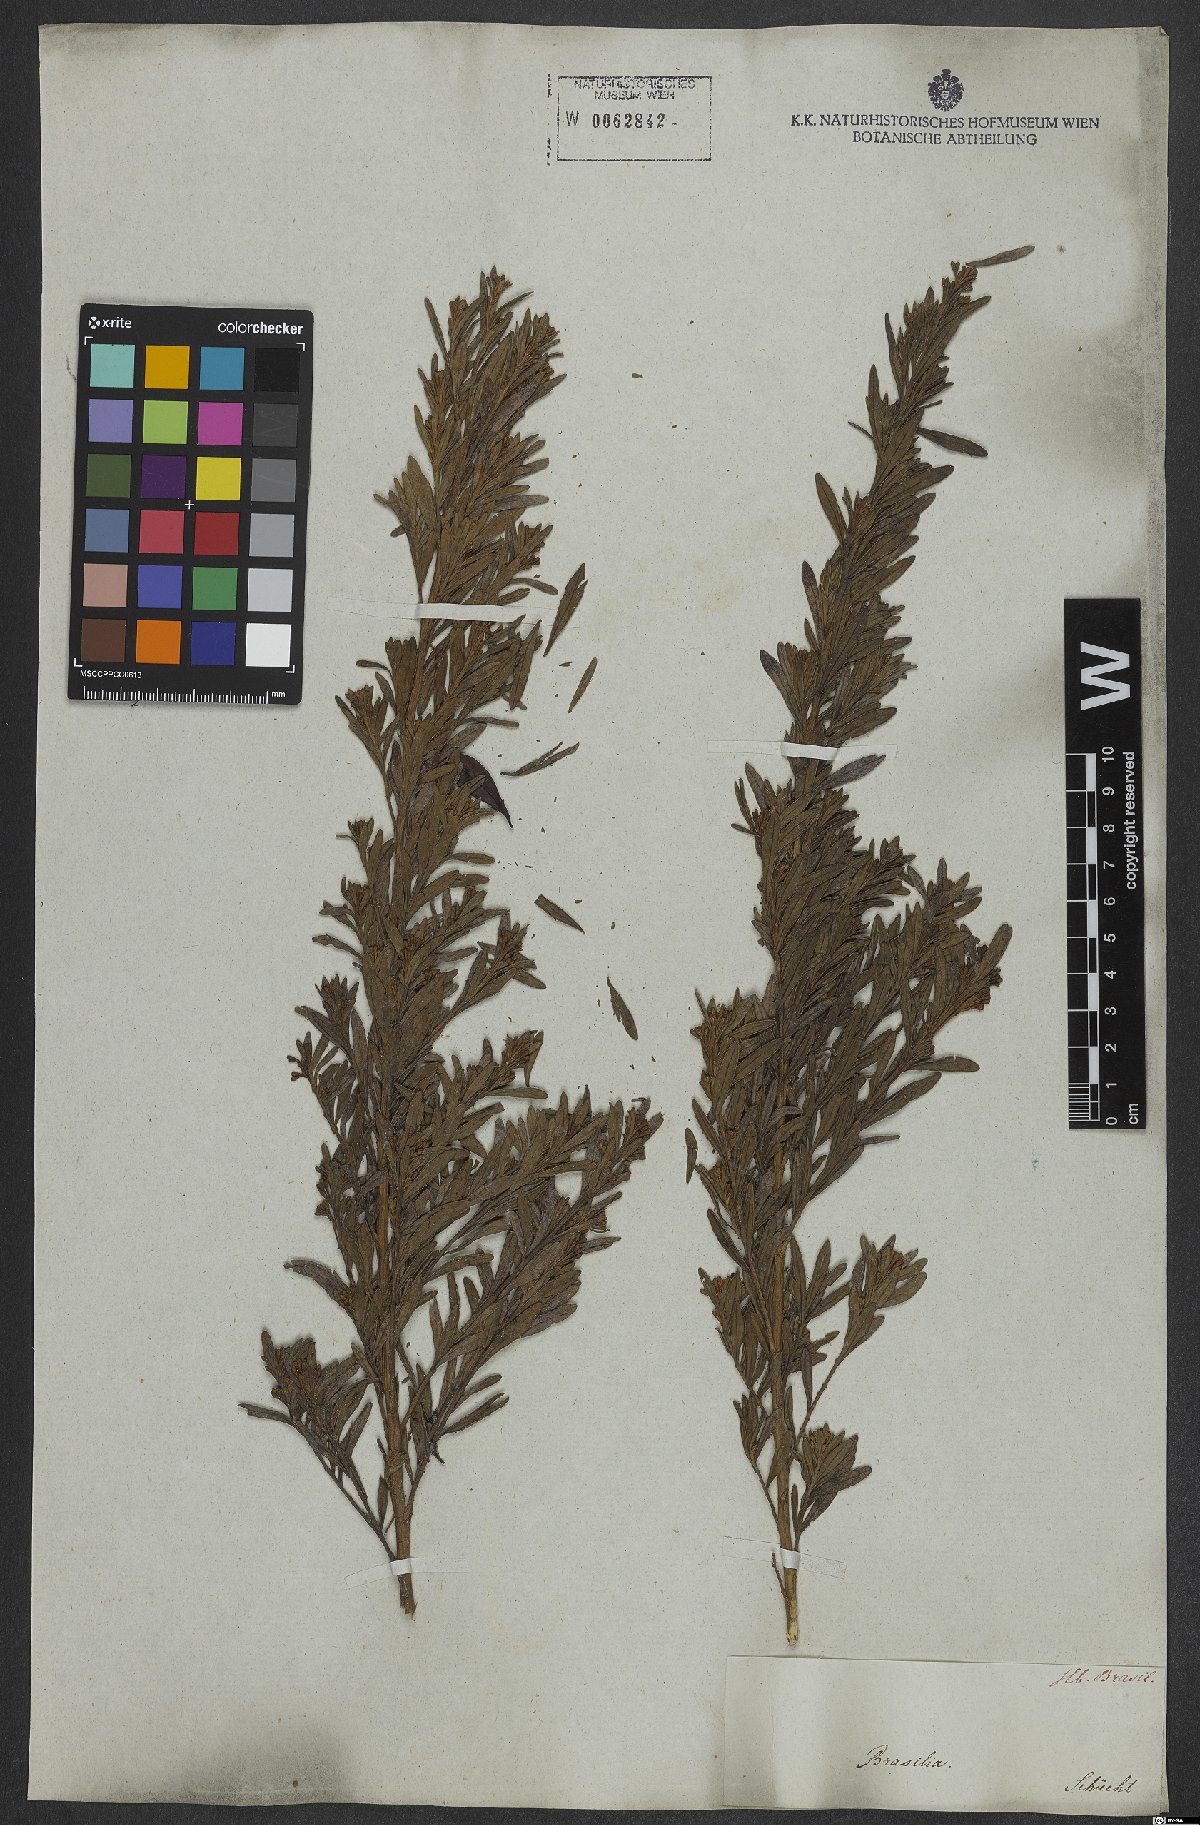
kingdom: Plantae
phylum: Tracheophyta
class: Magnoliopsida
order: Asterales
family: Asteraceae
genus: Baccharis
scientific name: Baccharis
